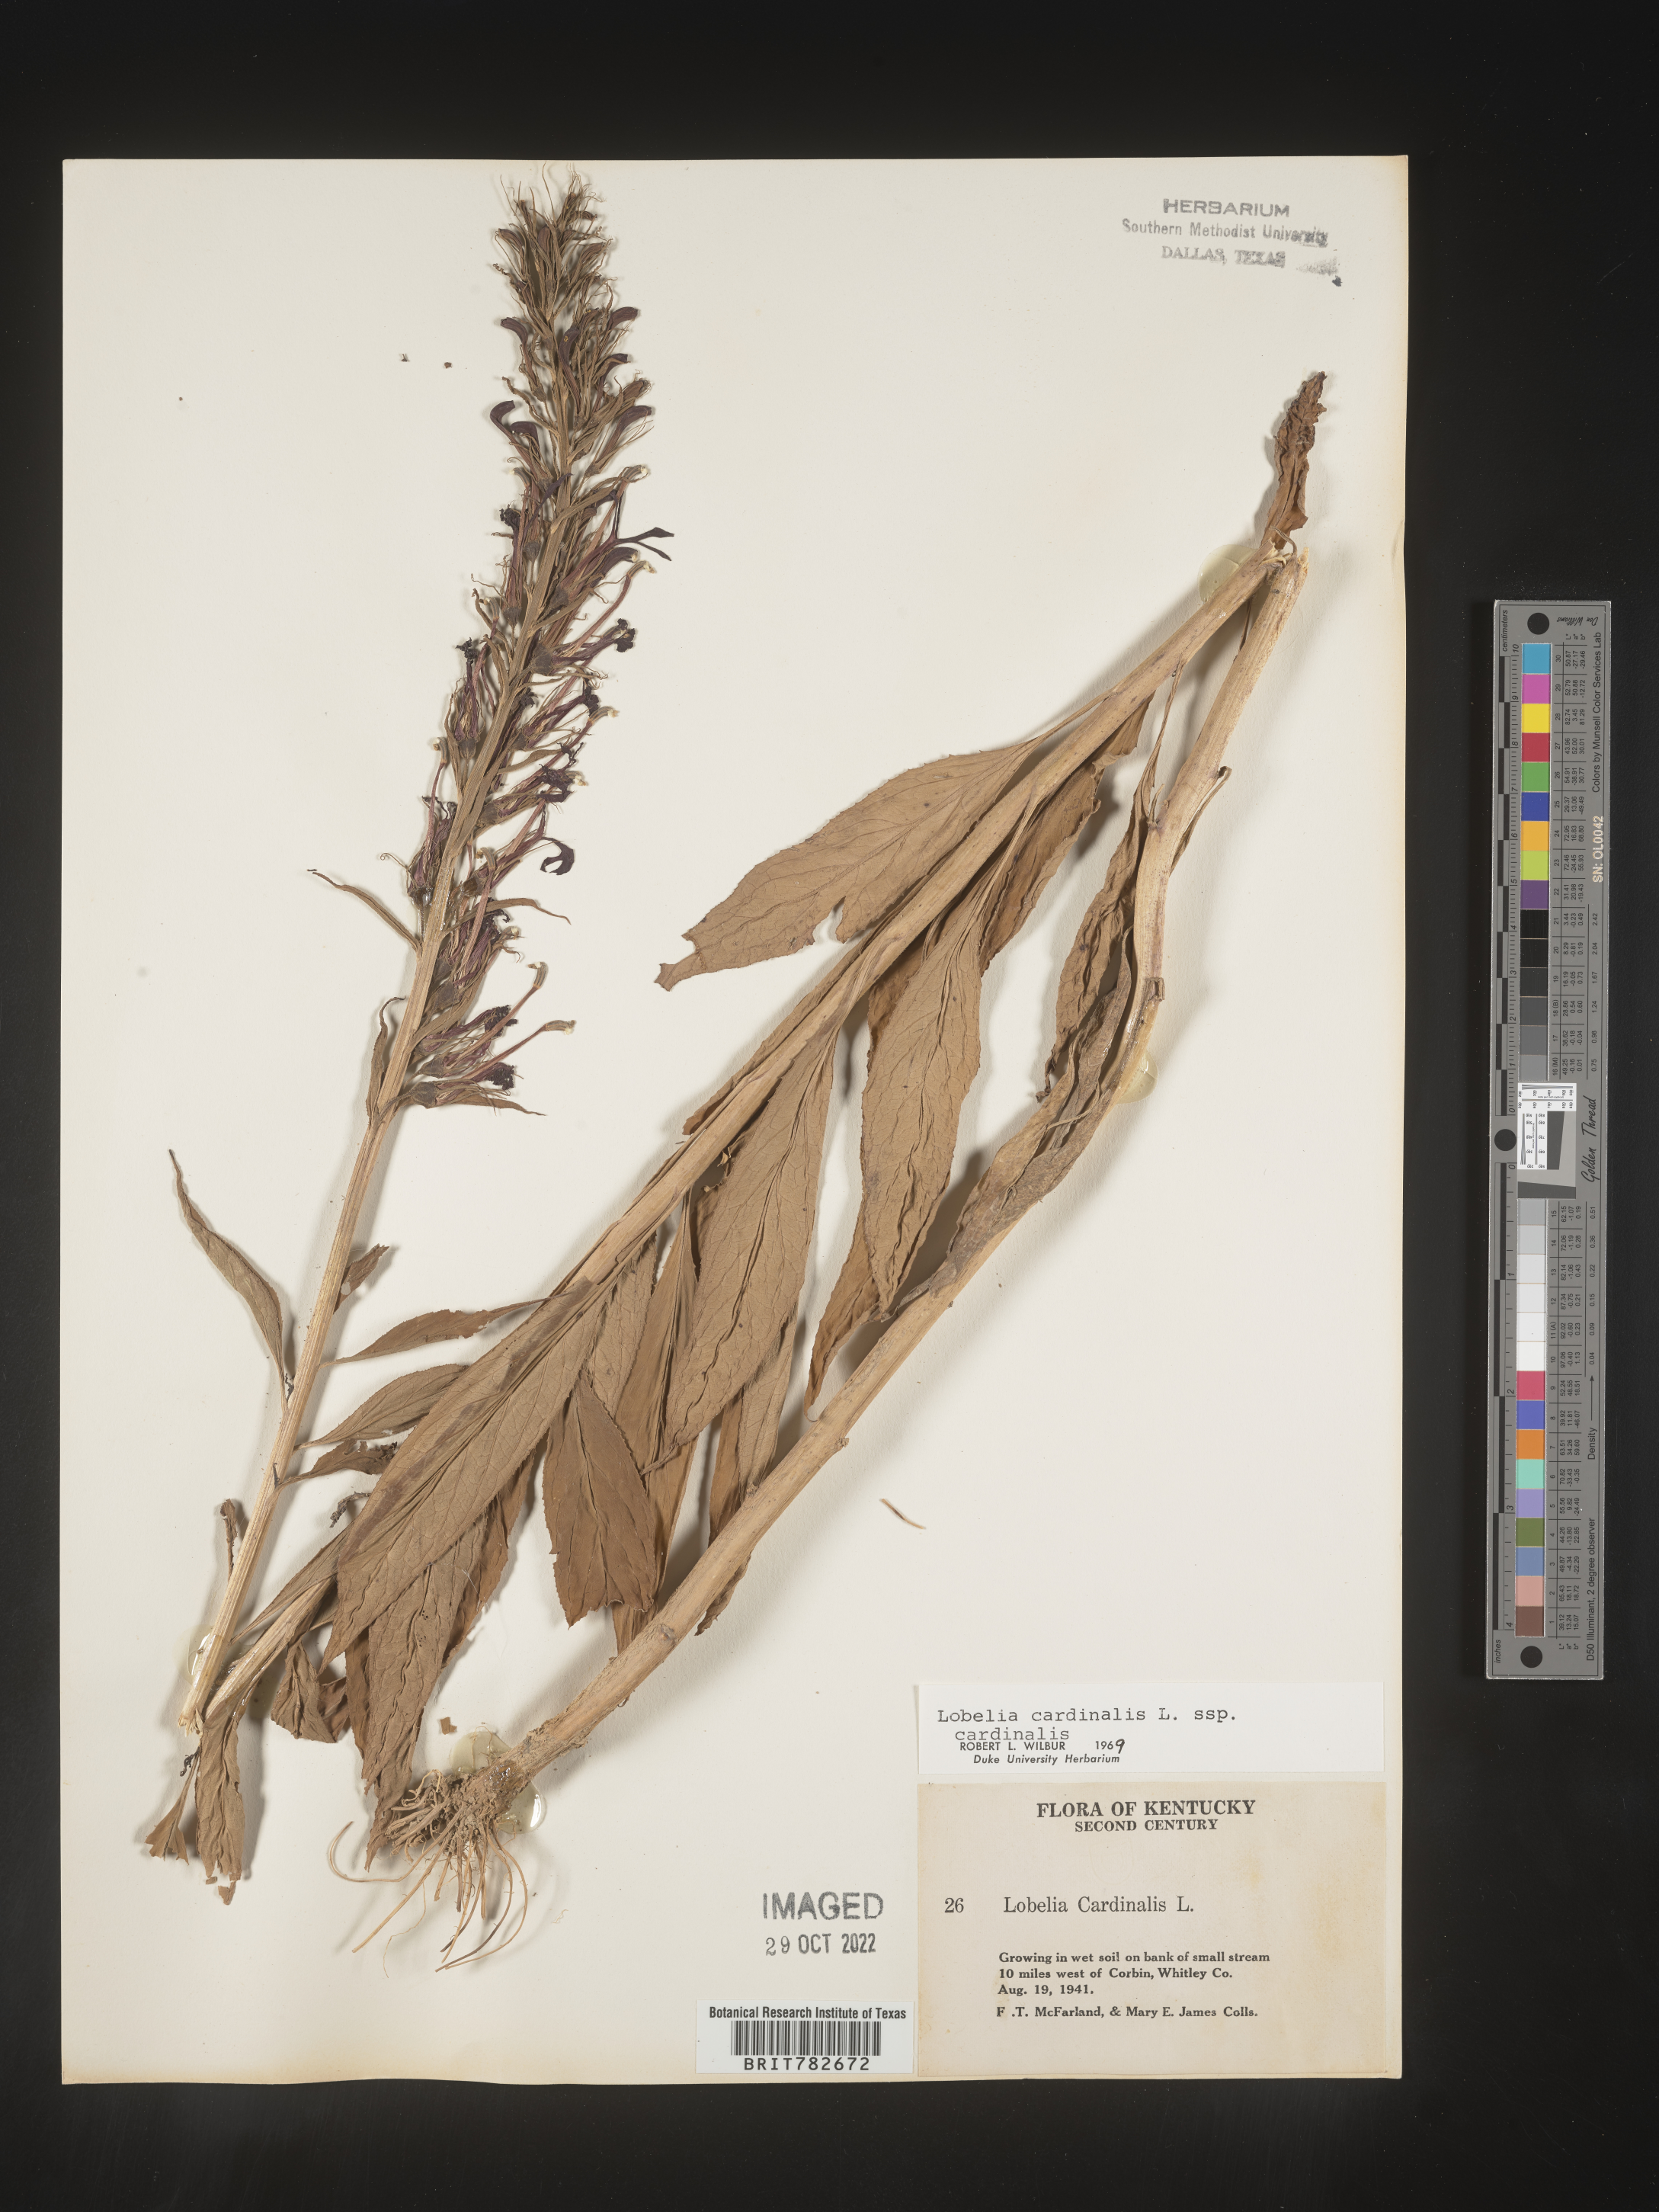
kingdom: Plantae
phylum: Tracheophyta
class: Magnoliopsida
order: Asterales
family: Campanulaceae
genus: Lobelia
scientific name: Lobelia cardinalis
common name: Cardinal flower
